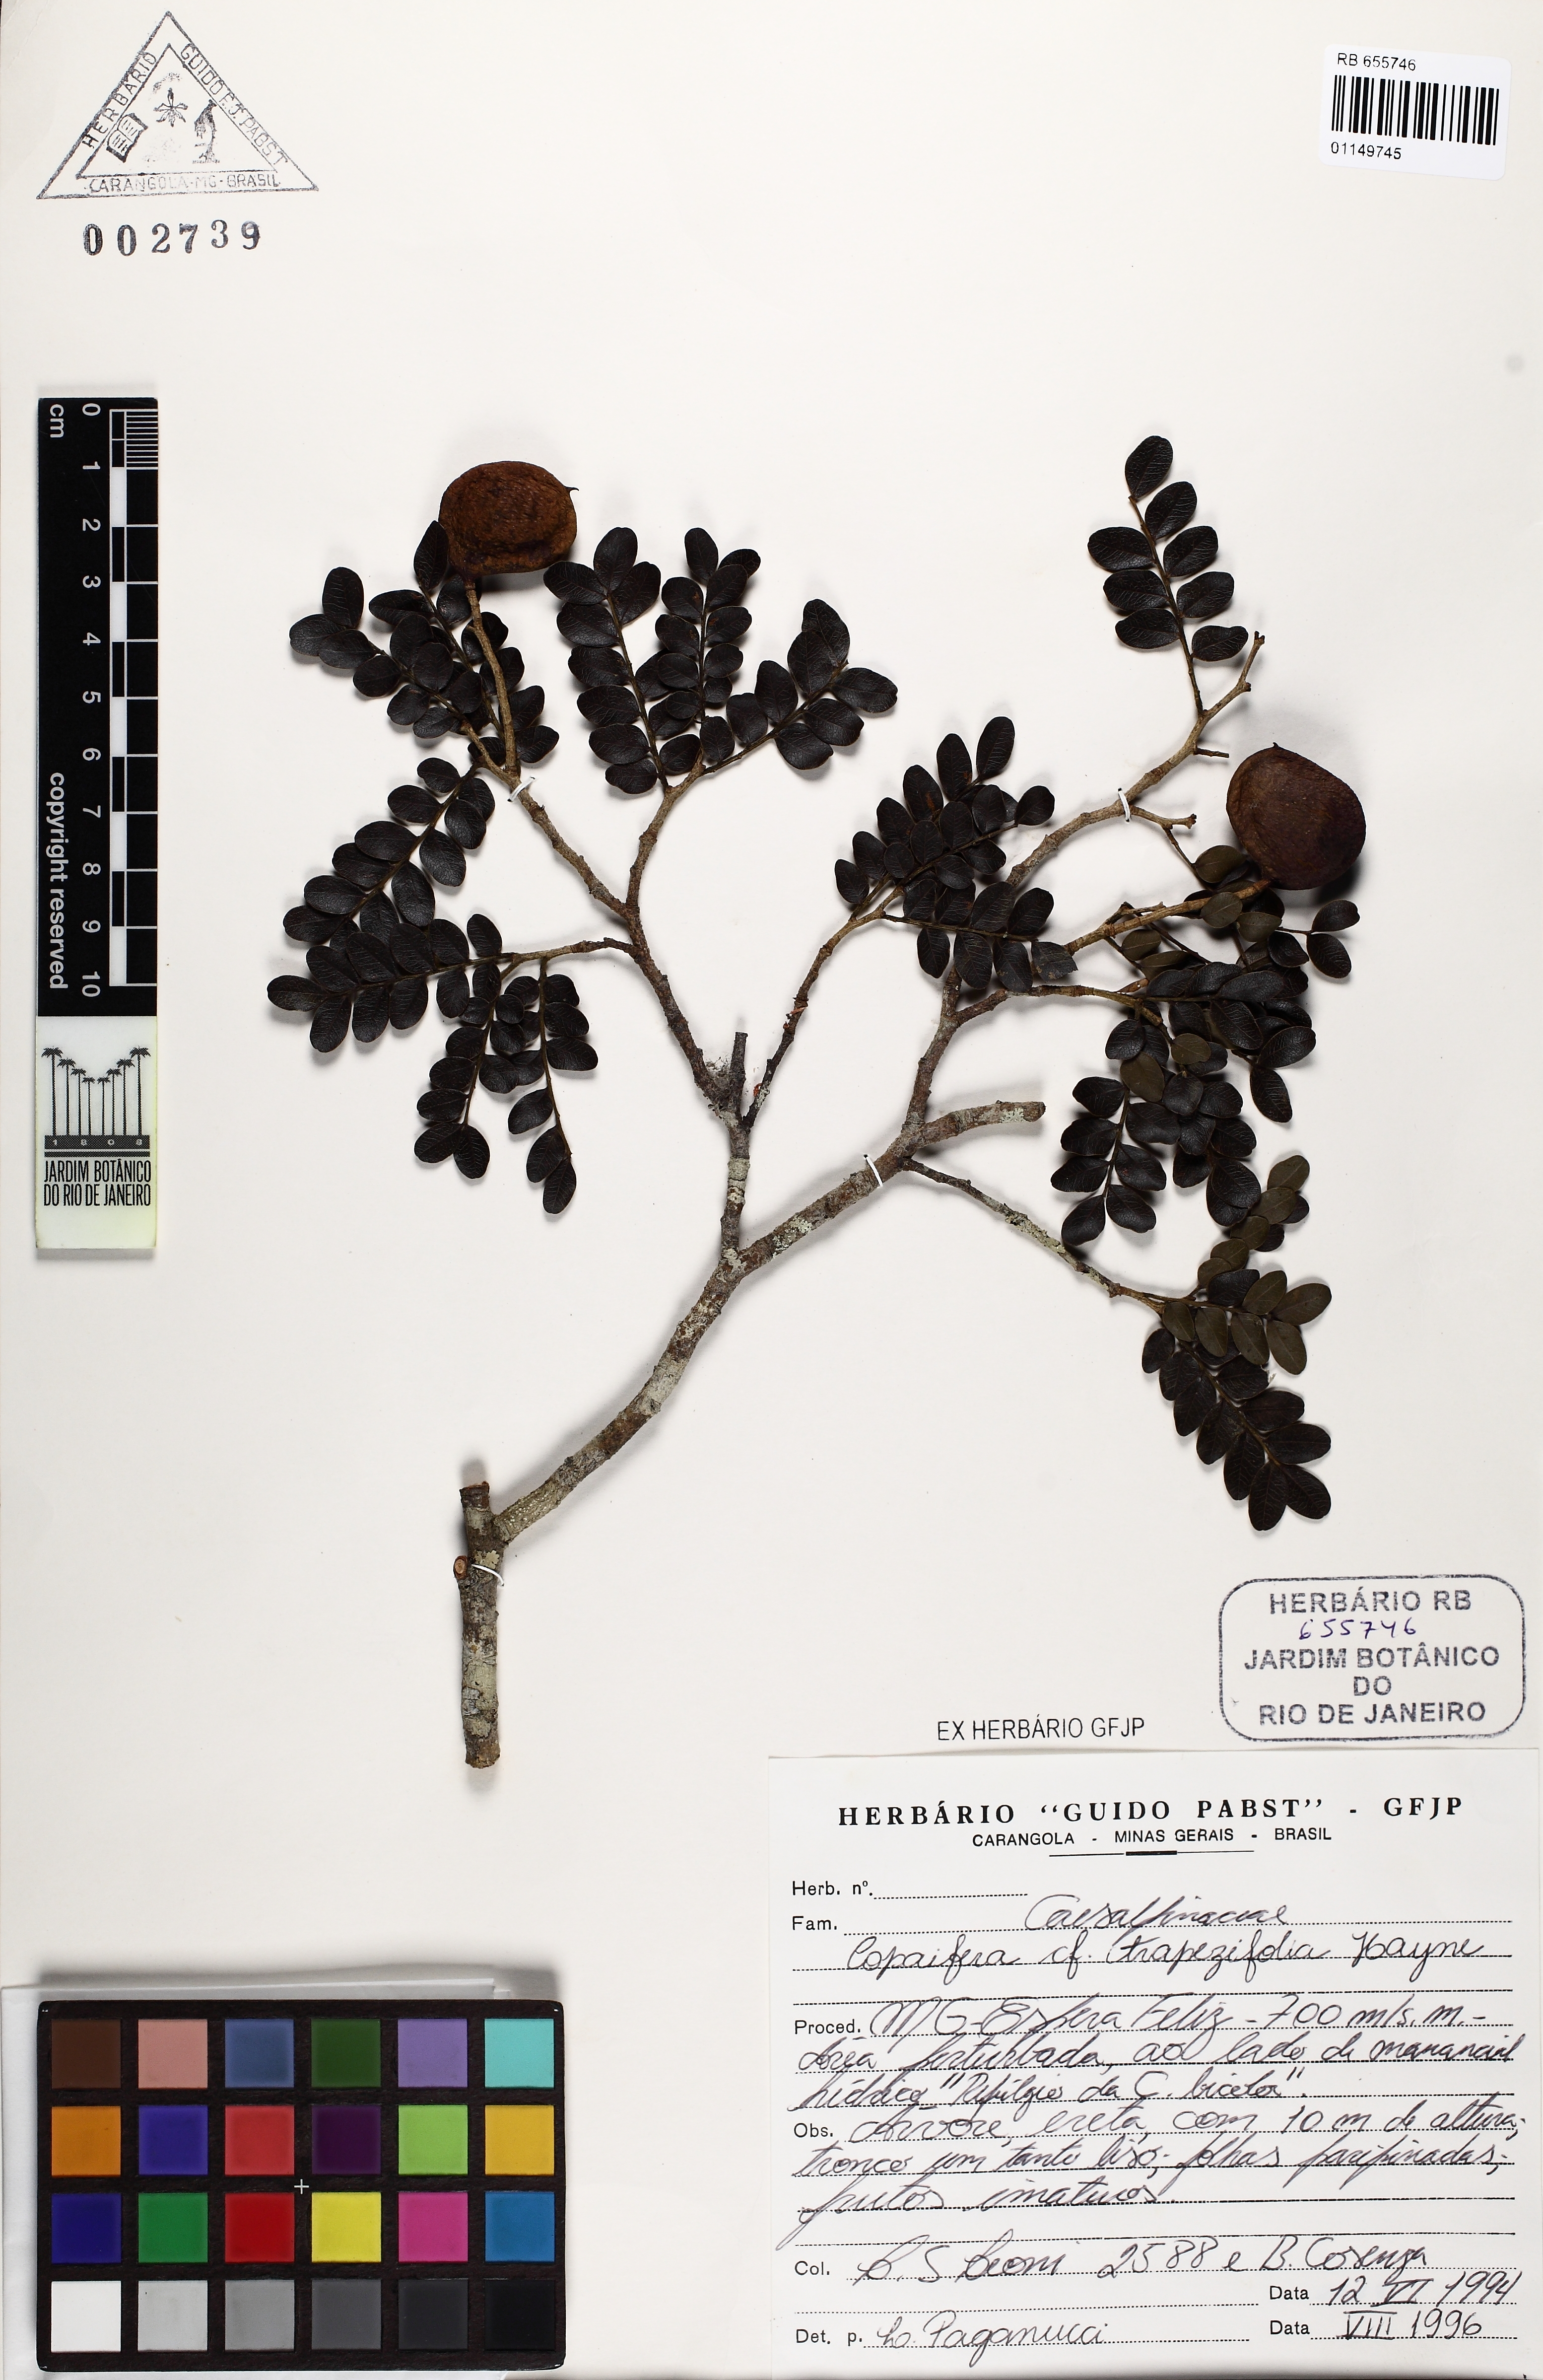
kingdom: Plantae
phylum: Tracheophyta
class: Magnoliopsida
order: Fabales
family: Fabaceae
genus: Copaifera
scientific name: Copaifera trapezifolia
